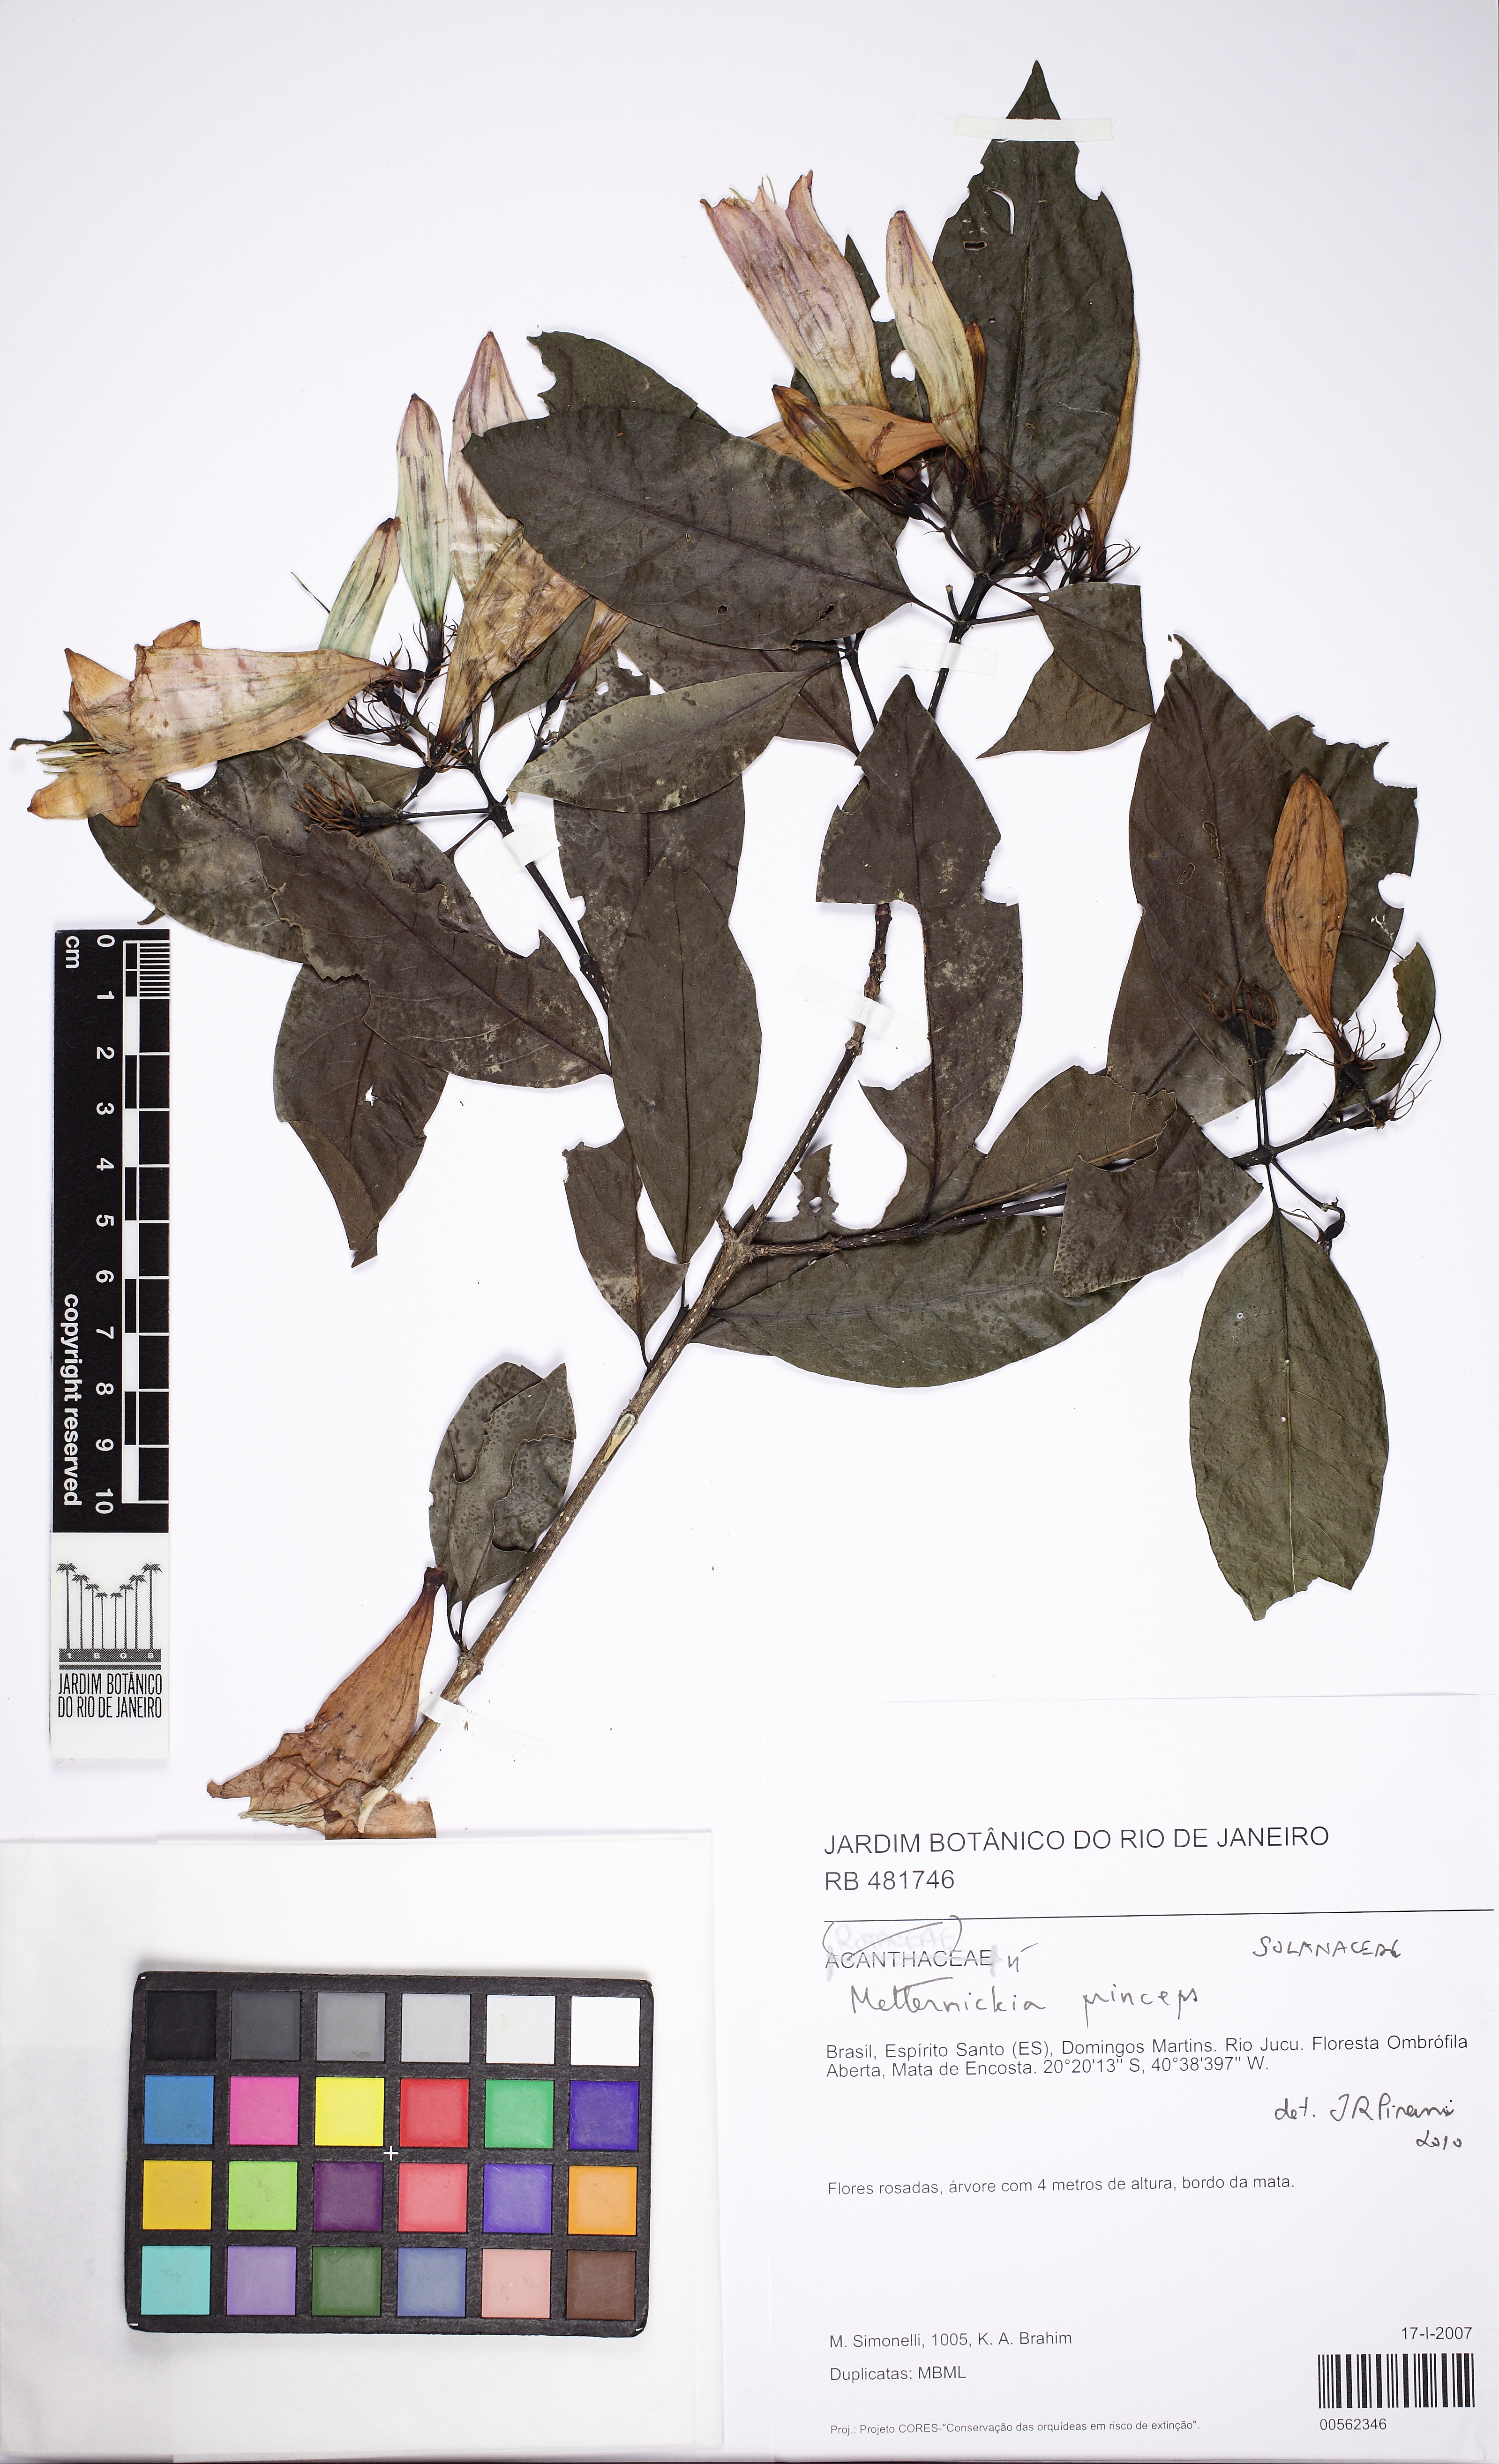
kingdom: Plantae
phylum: Tracheophyta
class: Magnoliopsida
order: Gentianales
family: Rubiaceae
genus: Coutarea
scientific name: Coutarea hexandra
